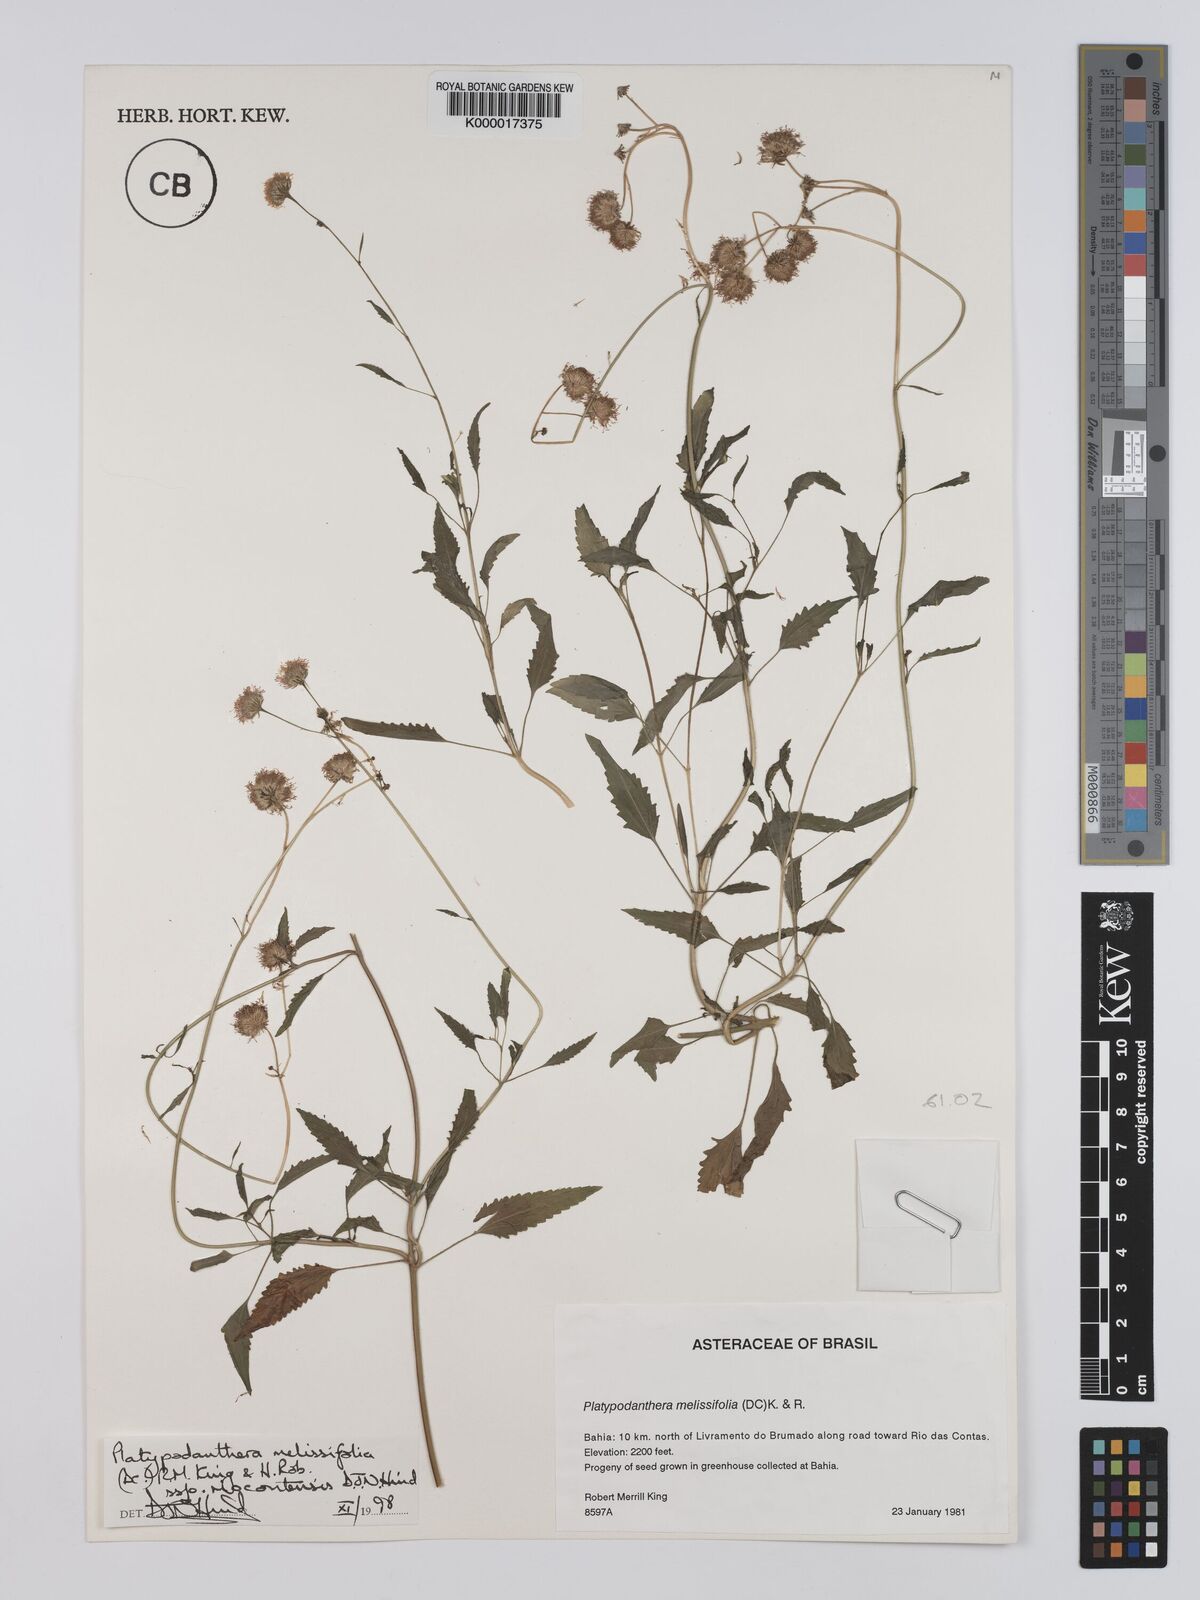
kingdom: Plantae
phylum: Tracheophyta
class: Magnoliopsida
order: Asterales
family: Asteraceae
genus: Platypodanthera
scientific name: Platypodanthera melissifolia
